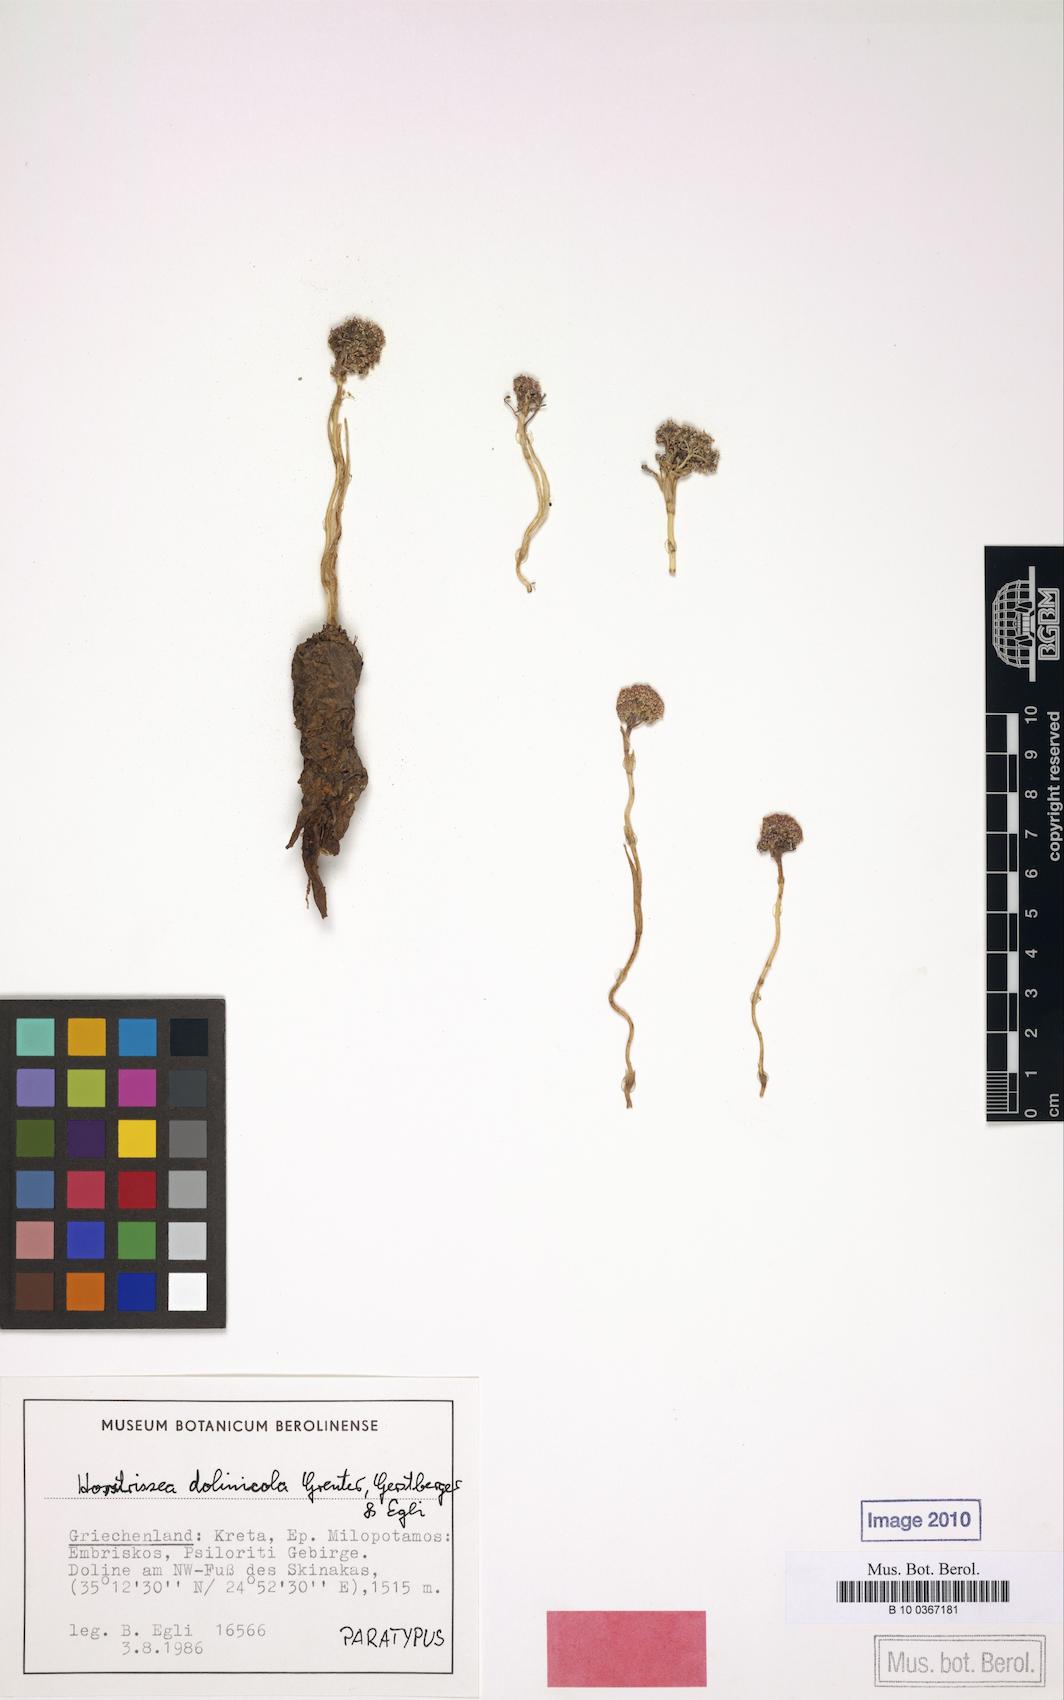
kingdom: Plantae
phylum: Tracheophyta
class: Magnoliopsida
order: Apiales
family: Apiaceae
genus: Horstrissea
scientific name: Horstrissea dolinicola
